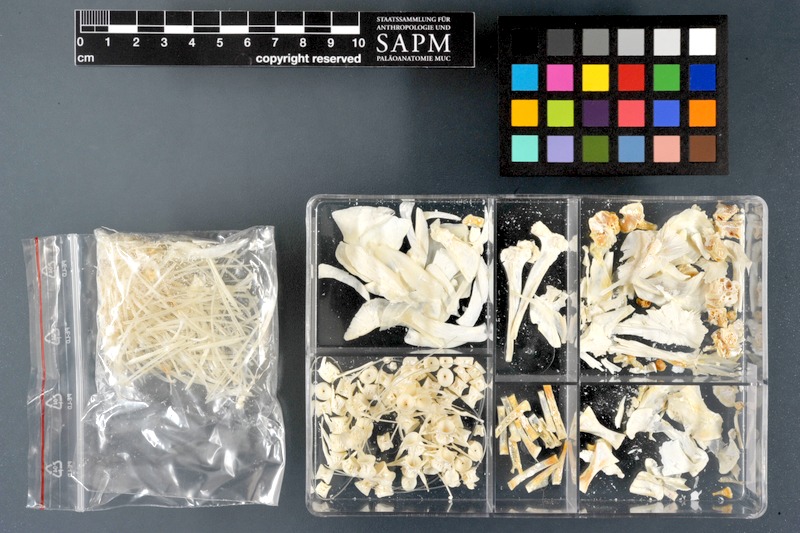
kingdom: Animalia
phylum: Chordata
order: Salmoniformes
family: Salmonidae
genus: Thymallus
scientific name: Thymallus thymallus
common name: Grayling
